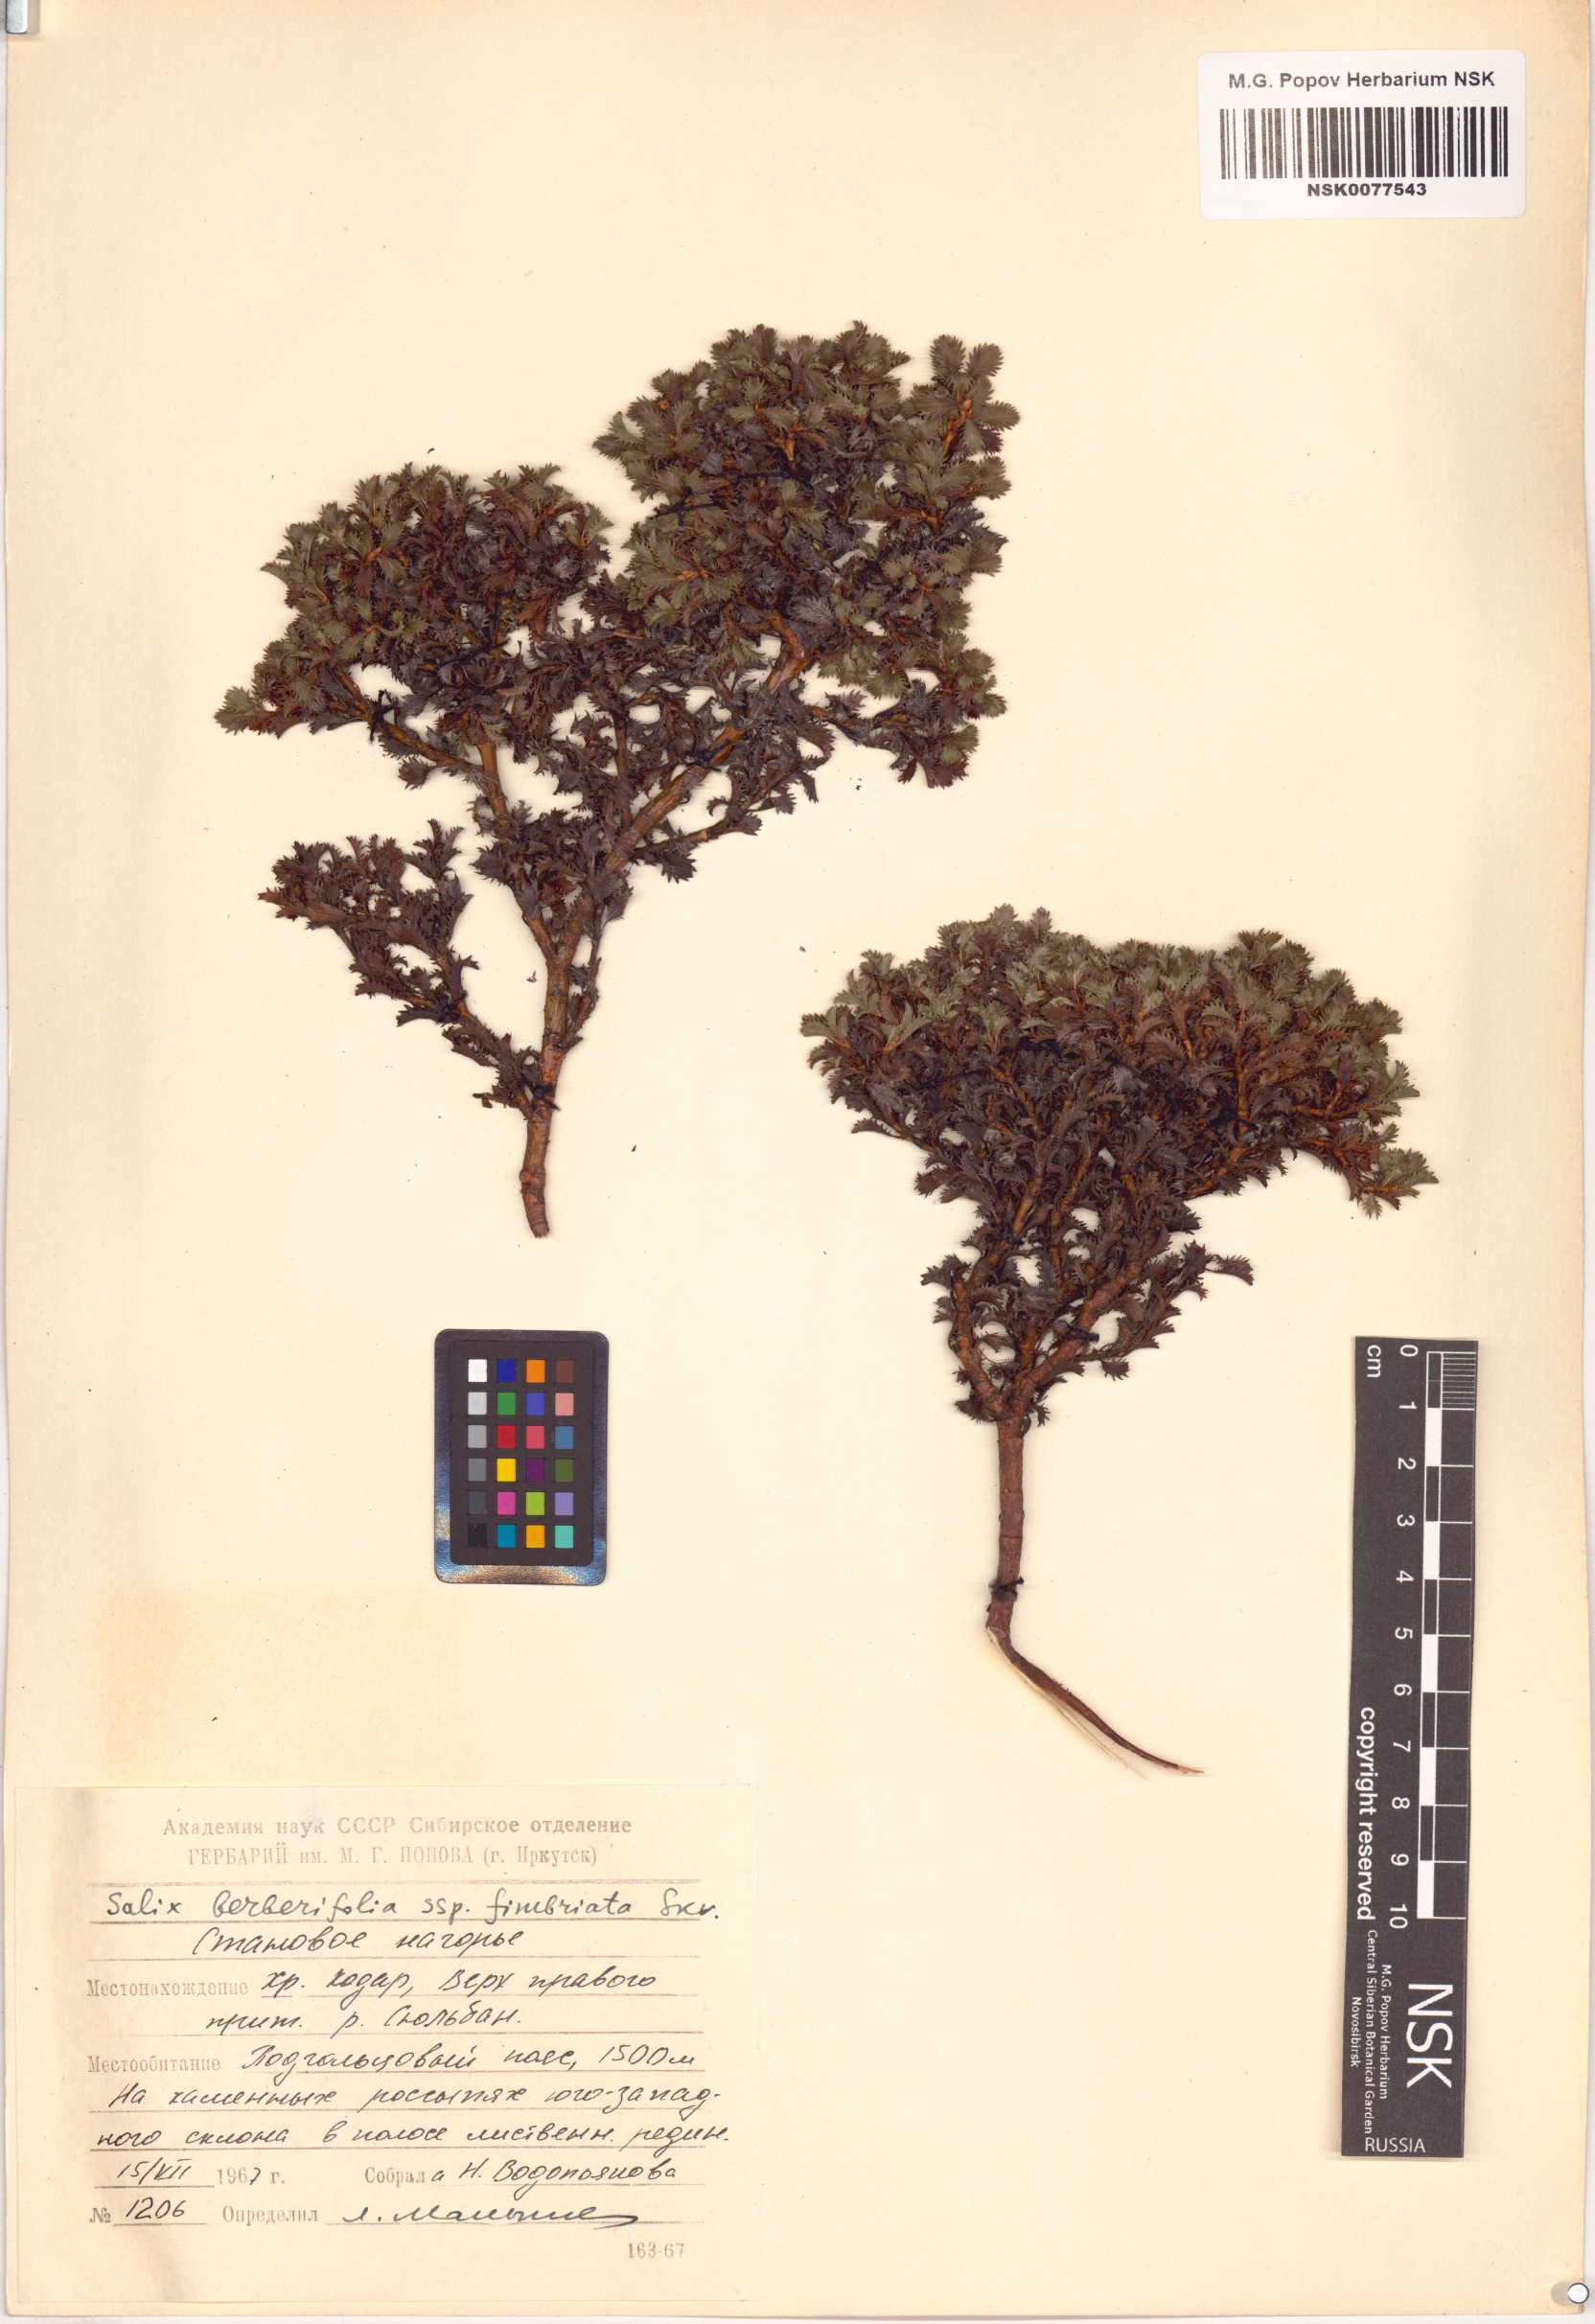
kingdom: Plantae
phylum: Tracheophyta
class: Magnoliopsida
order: Malpighiales
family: Salicaceae
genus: Salix
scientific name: Salix berberifolia
